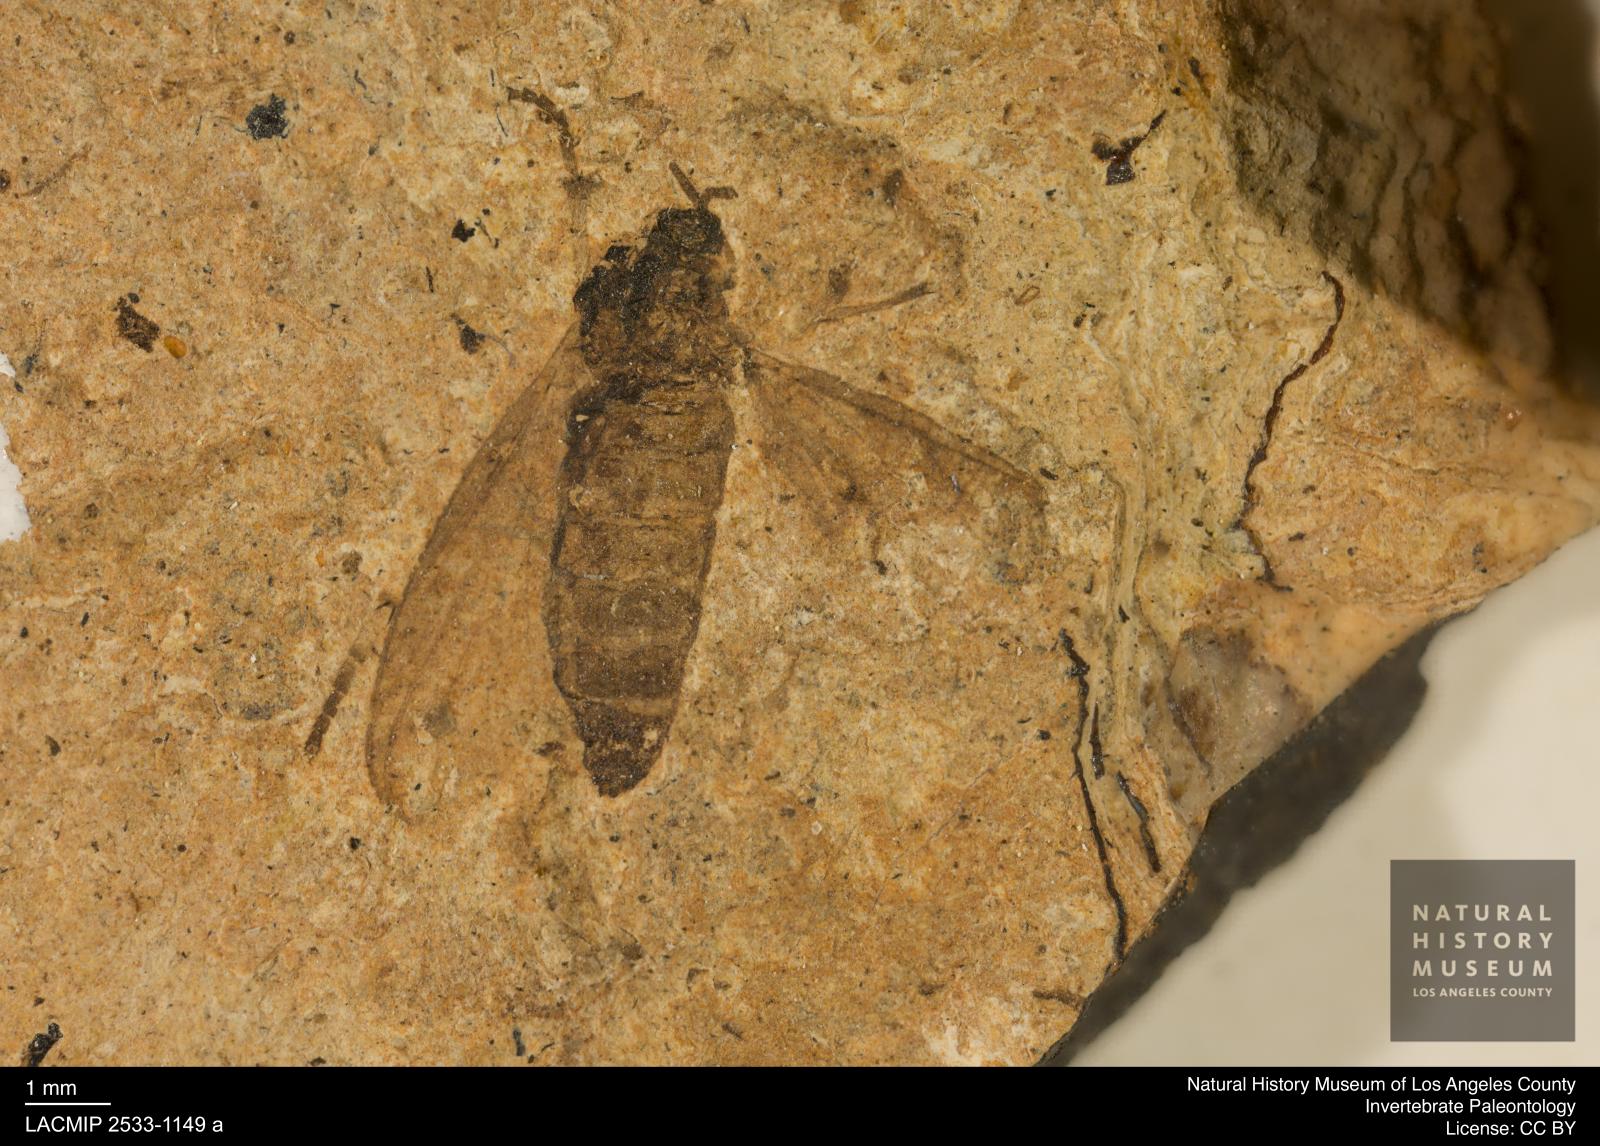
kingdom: Animalia
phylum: Arthropoda
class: Insecta
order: Diptera
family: Bibionidae
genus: Plecia
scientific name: Plecia pinguis
